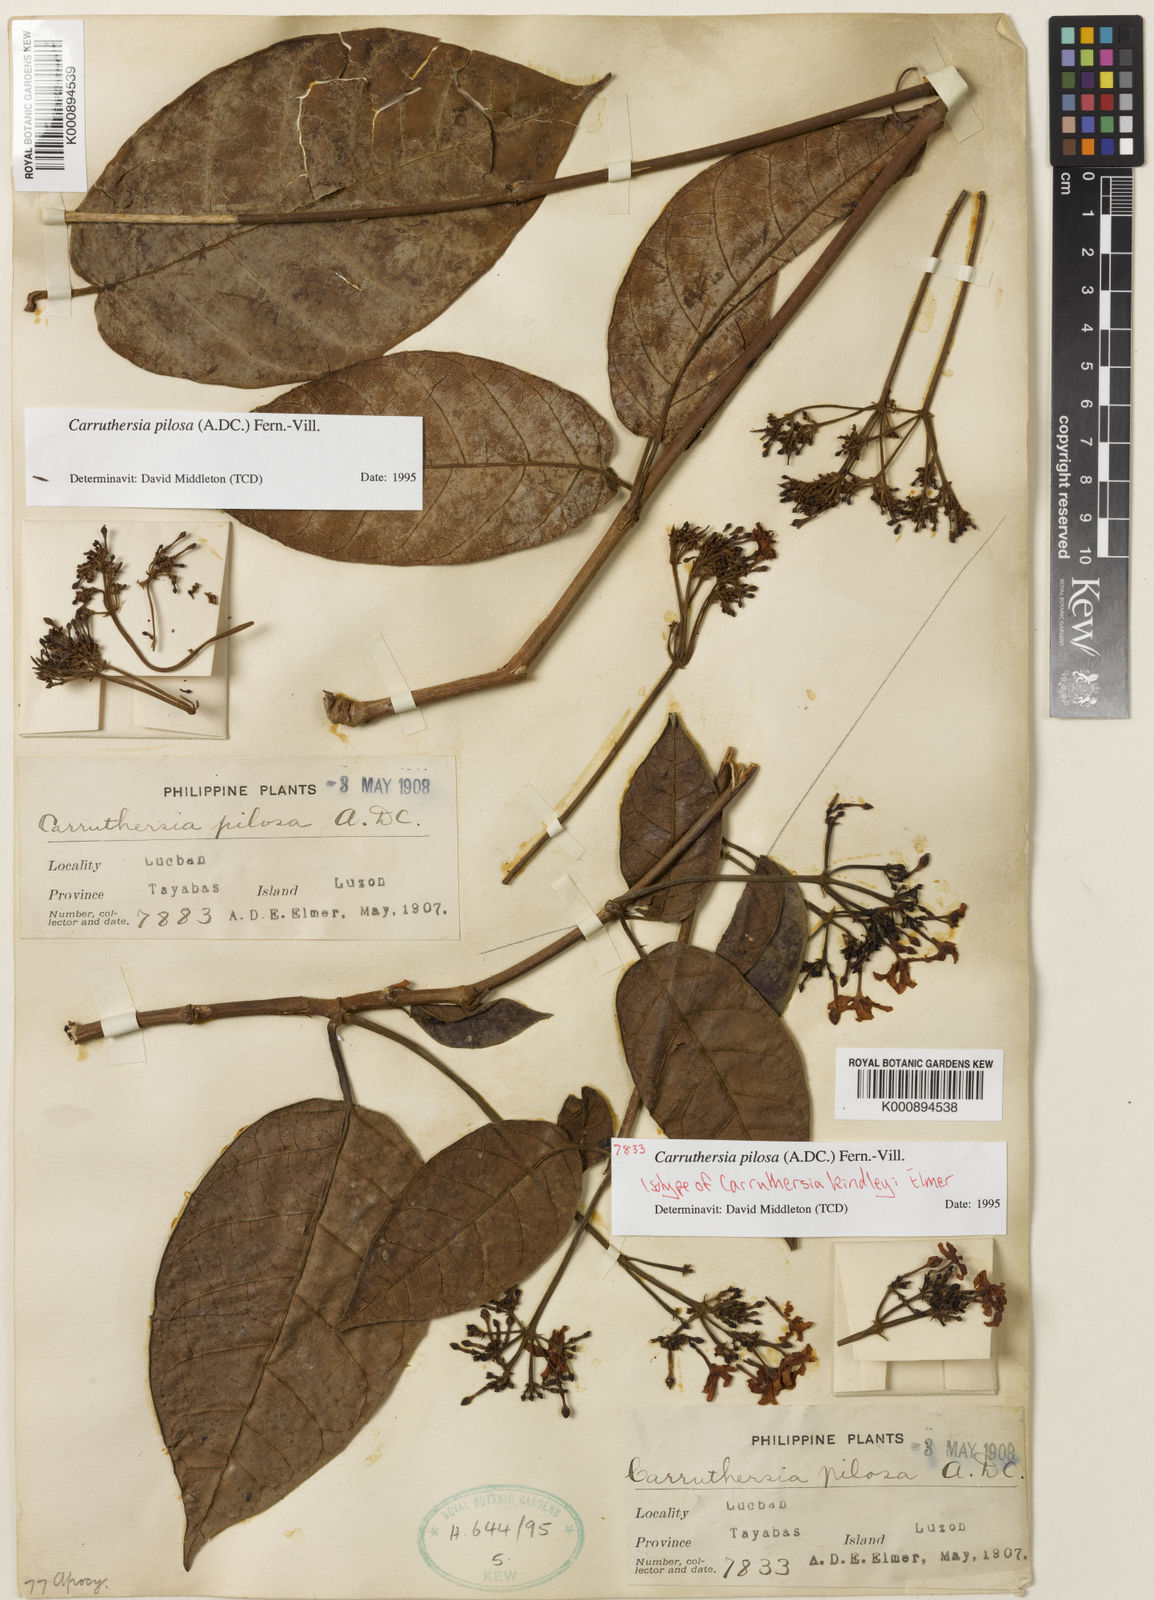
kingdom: Plantae
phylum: Tracheophyta
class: Magnoliopsida
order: Gentianales
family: Apocynaceae
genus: Carruthersia
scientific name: Carruthersia pilosa
